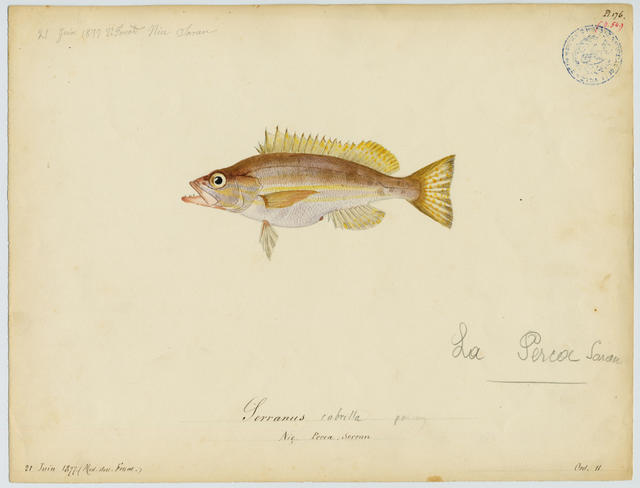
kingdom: Animalia
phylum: Chordata
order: Perciformes
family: Serranidae
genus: Serranus
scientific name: Serranus cabrilla
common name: Comber
